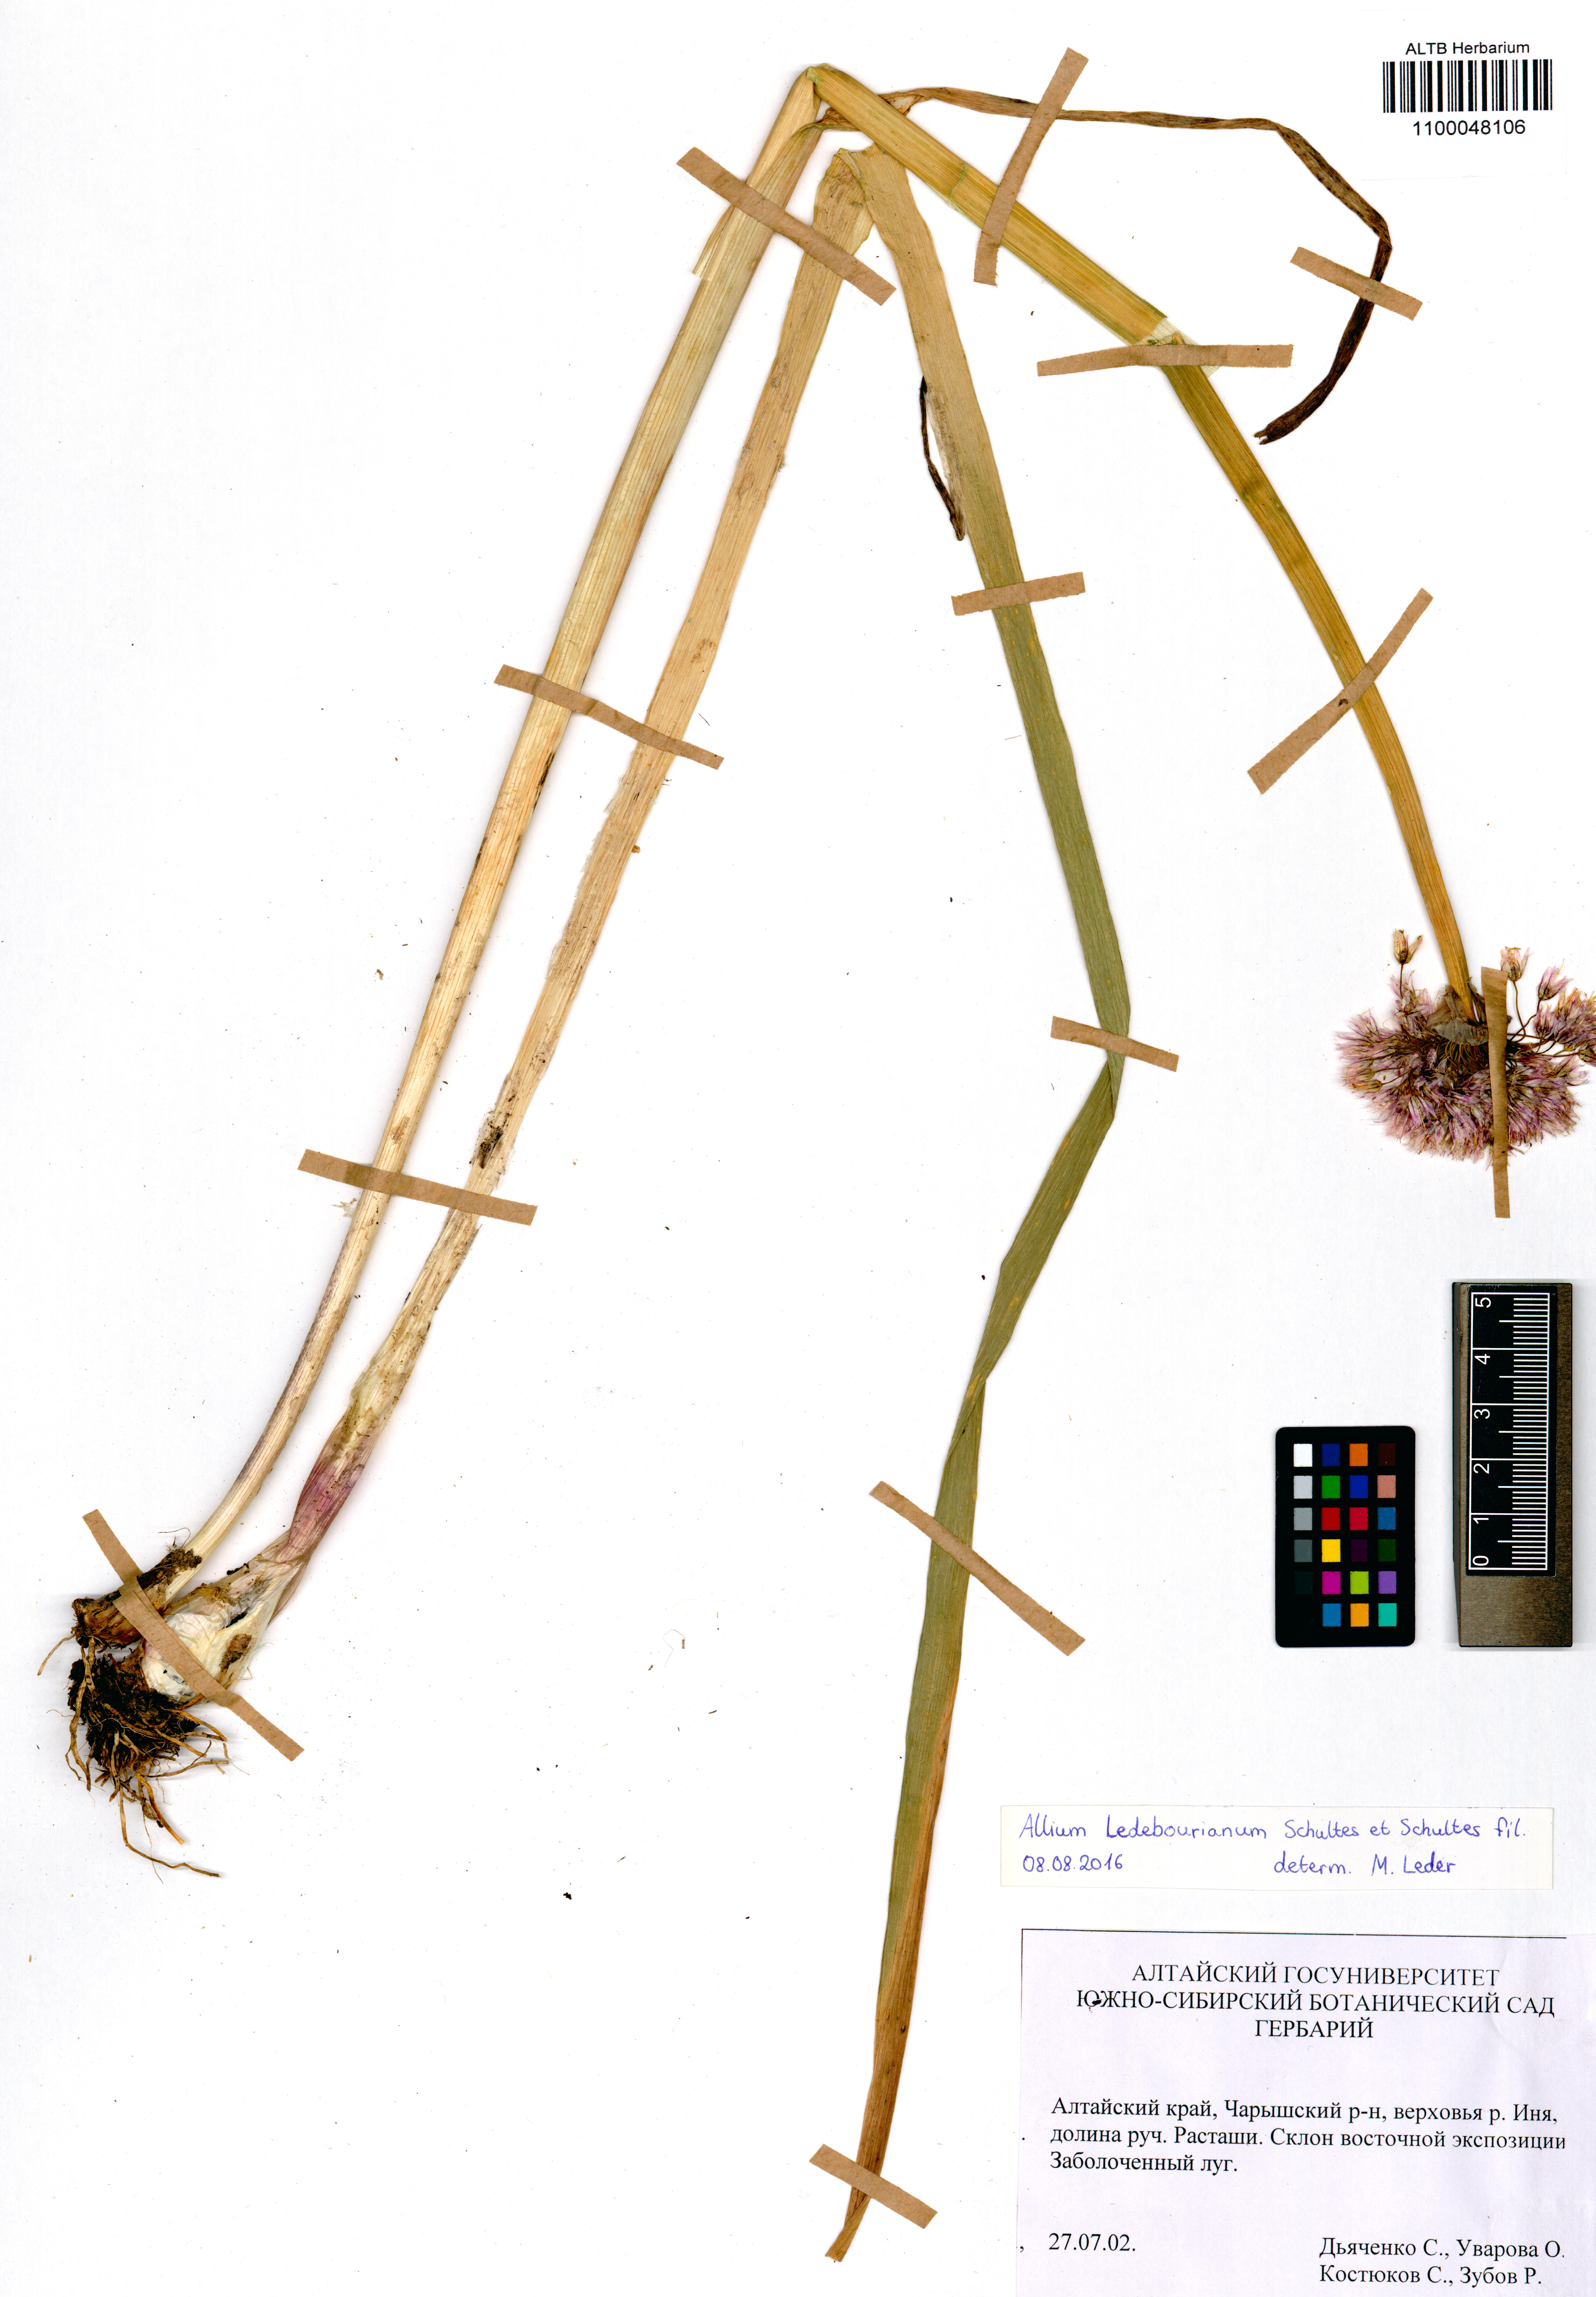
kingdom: Plantae
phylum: Tracheophyta
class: Liliopsida
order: Asparagales
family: Amaryllidaceae
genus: Allium
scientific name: Allium ledebourianum
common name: Ledebour chive
